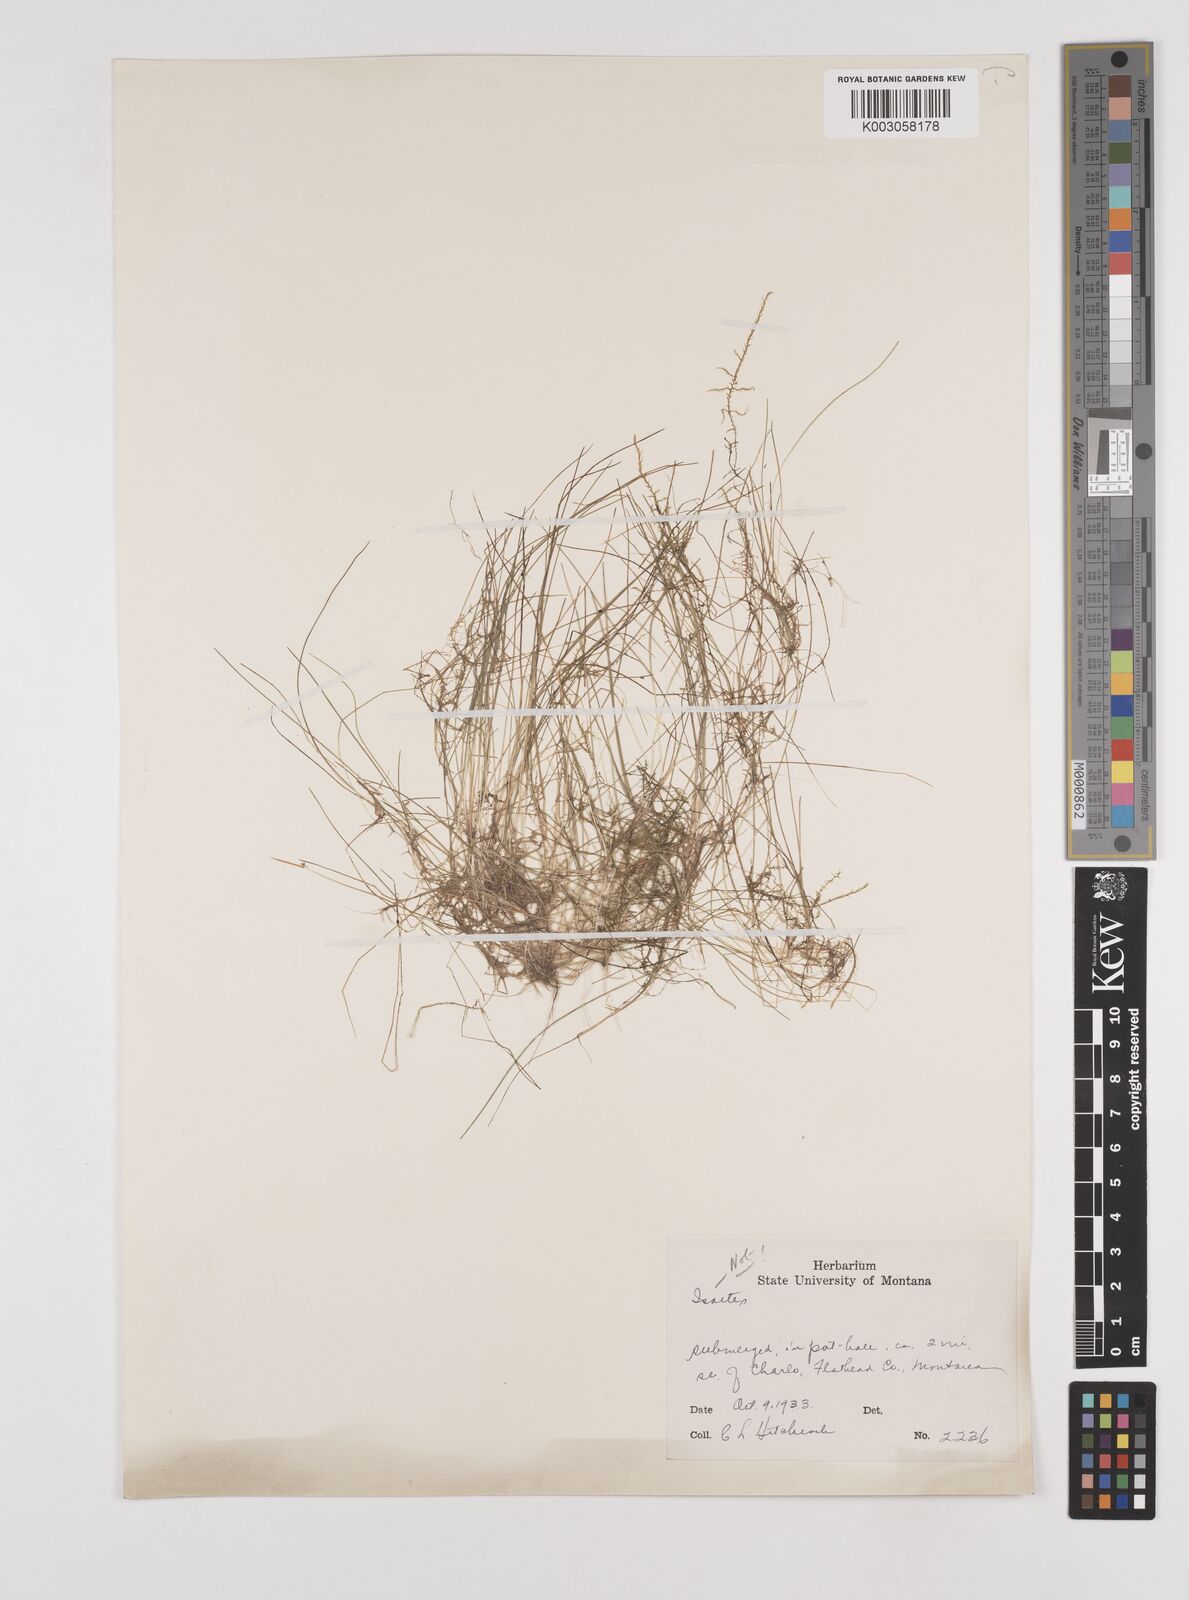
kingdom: Plantae
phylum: Tracheophyta
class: Liliopsida
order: Poales
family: Juncaceae
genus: Juncus
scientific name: Juncus
